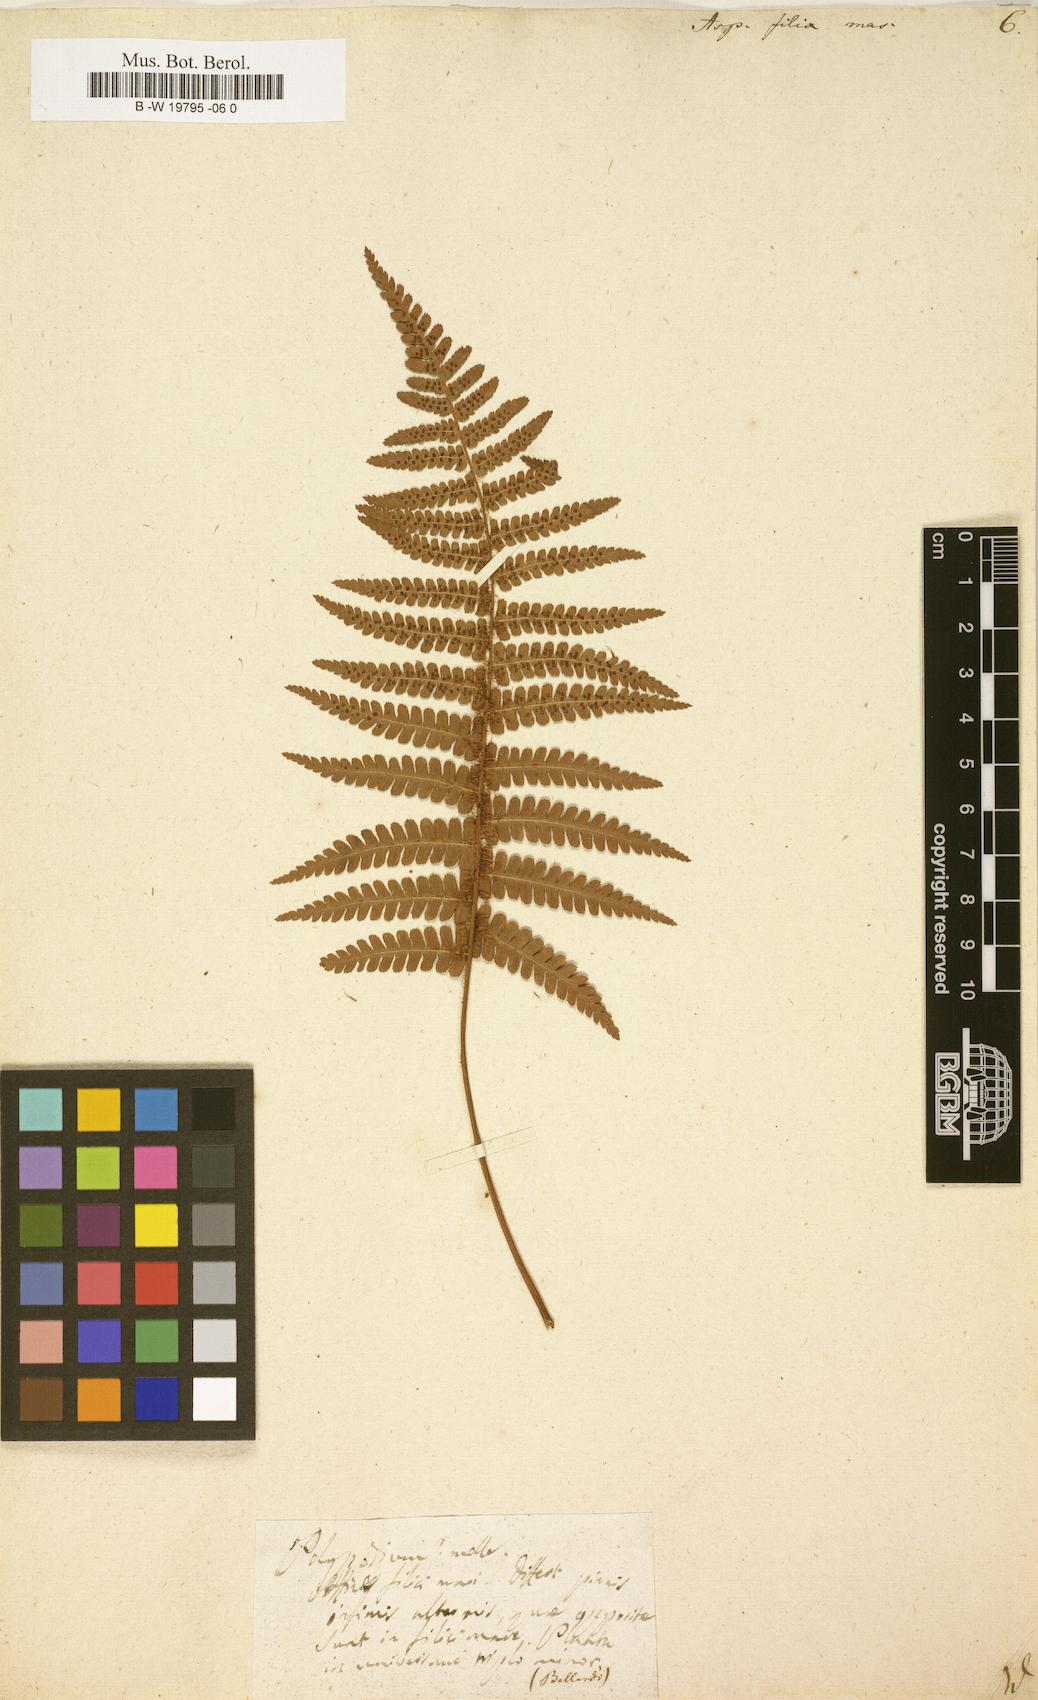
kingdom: Plantae
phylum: Tracheophyta
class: Polypodiopsida
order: Polypodiales
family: Dryopteridaceae
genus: Dryopteris
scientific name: Dryopteris filix-mas
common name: Male fern
